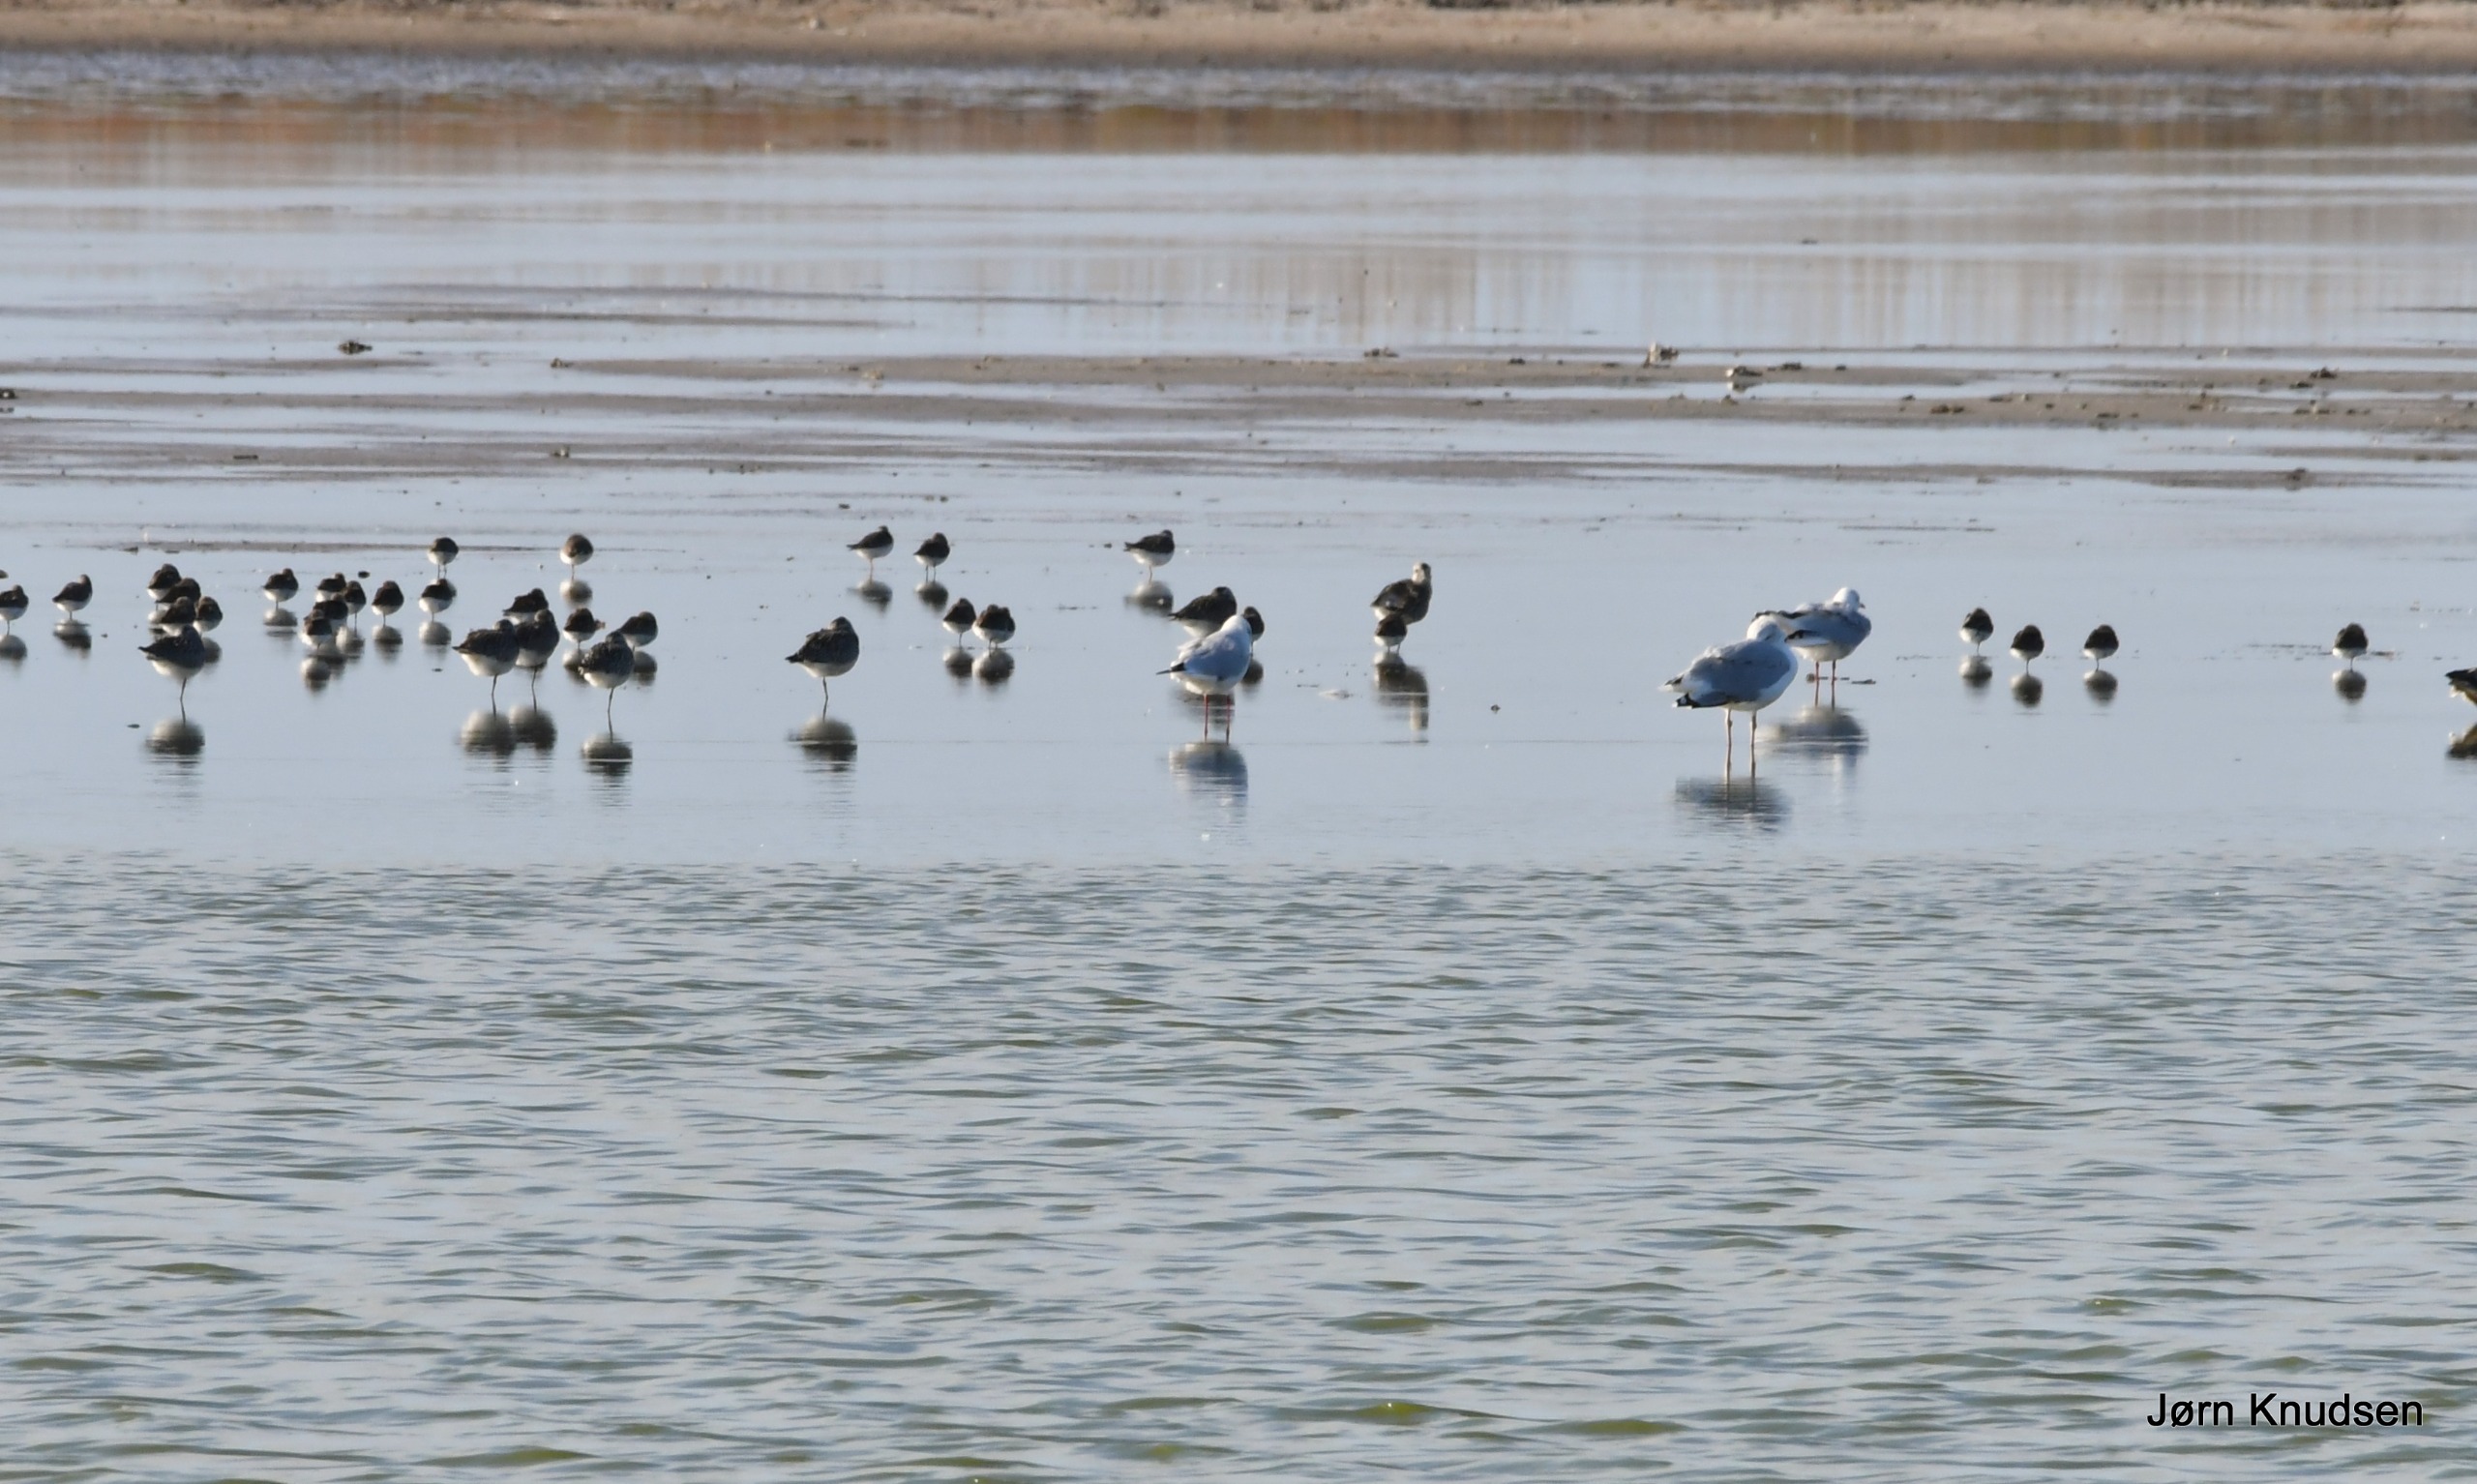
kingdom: Animalia
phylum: Chordata
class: Aves
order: Charadriiformes
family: Laridae
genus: Larus
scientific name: Larus argentatus
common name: Sølvmåge
